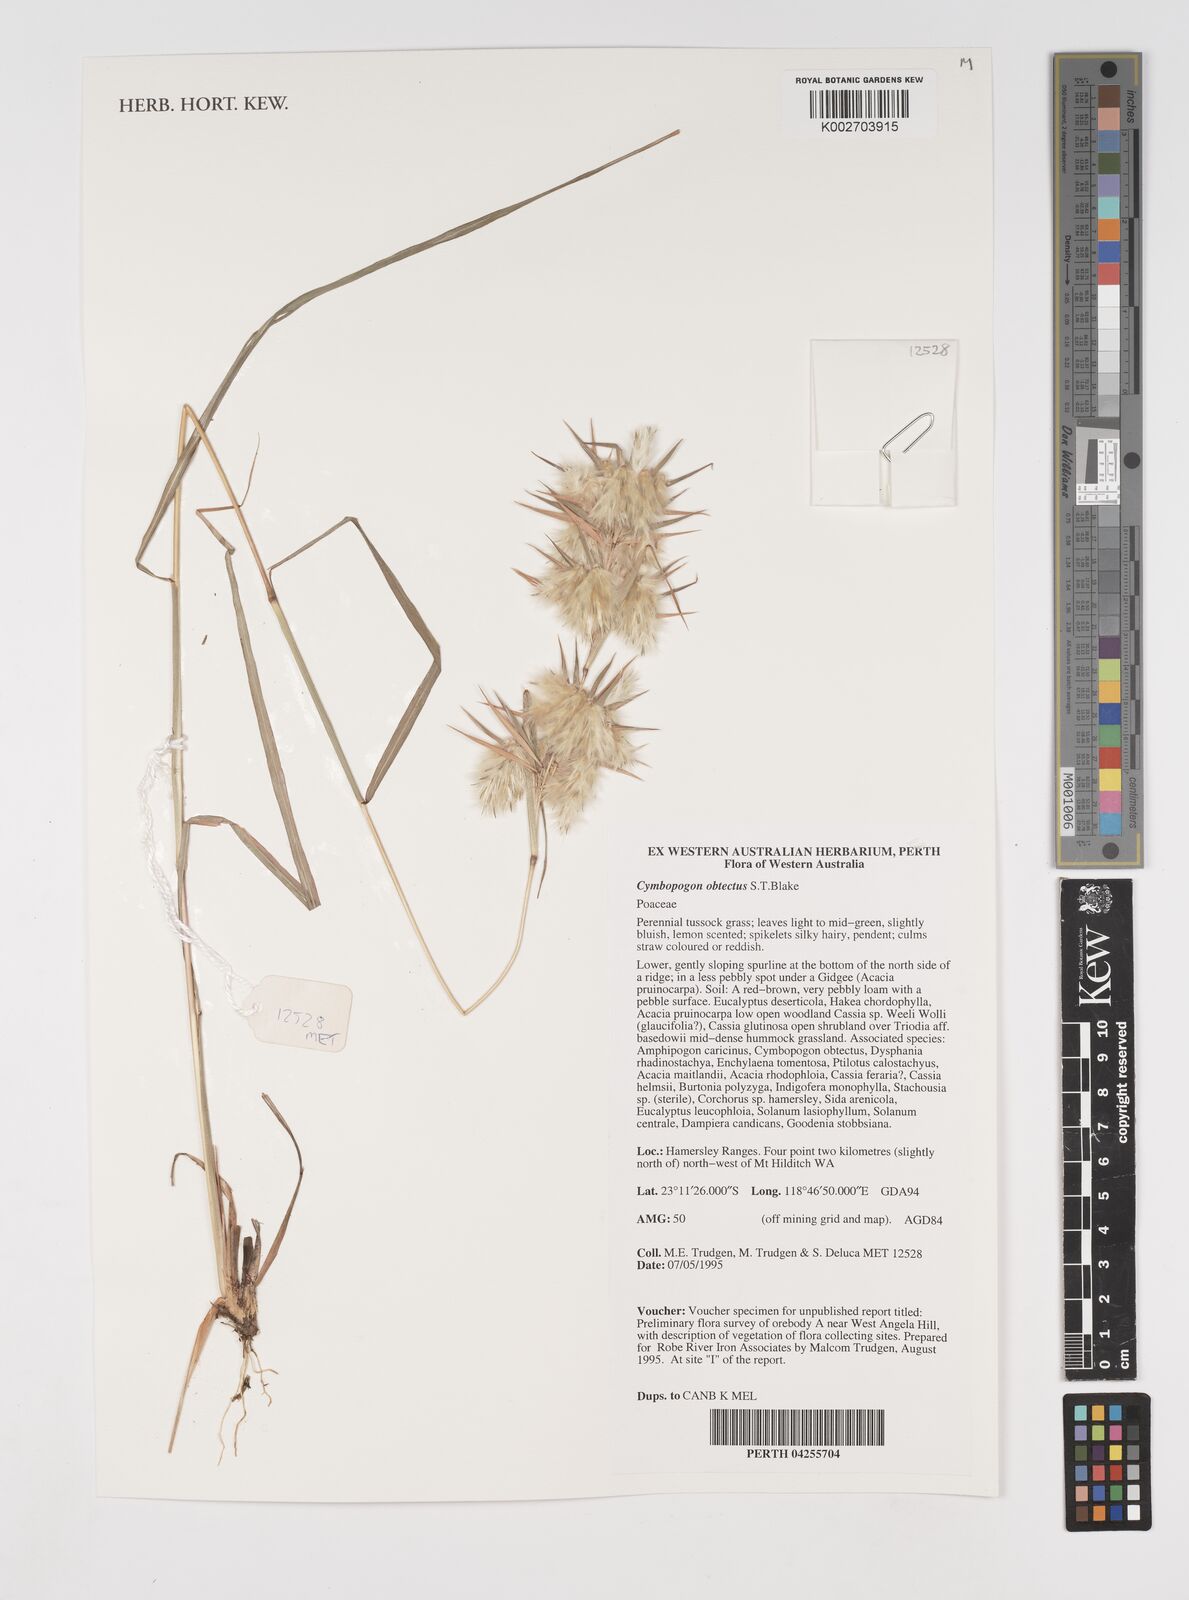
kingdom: Plantae
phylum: Tracheophyta
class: Liliopsida
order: Poales
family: Poaceae
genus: Cymbopogon
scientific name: Cymbopogon obtectus
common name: Silky heads
